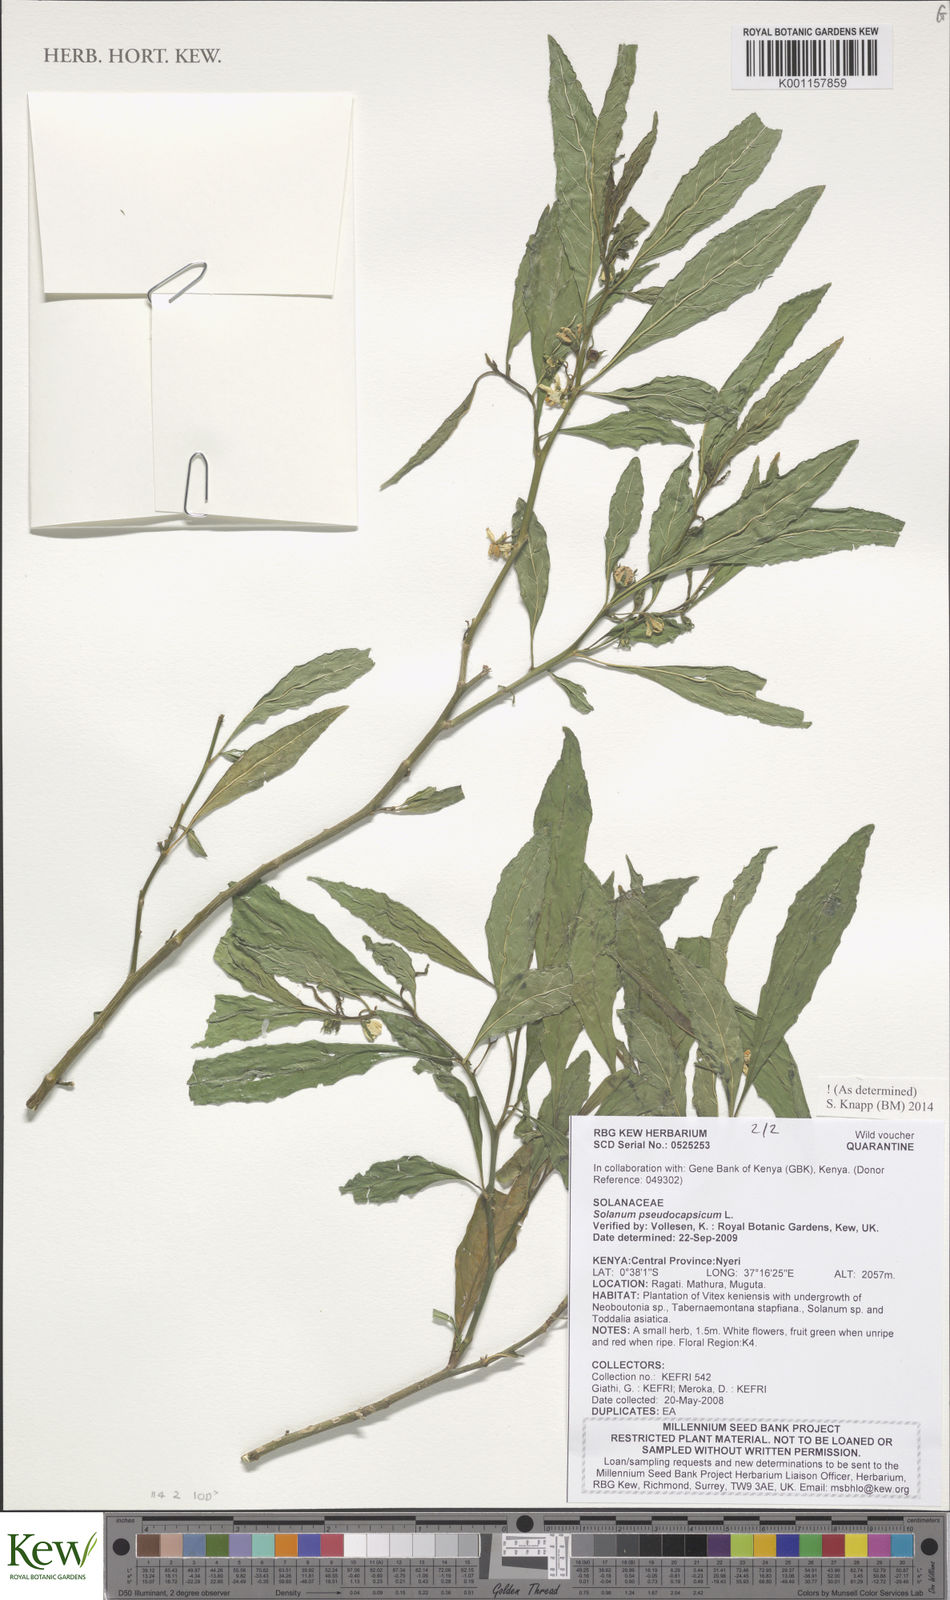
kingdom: Plantae
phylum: Tracheophyta
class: Magnoliopsida
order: Solanales
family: Solanaceae
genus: Solanum
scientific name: Solanum pseudospinosum
